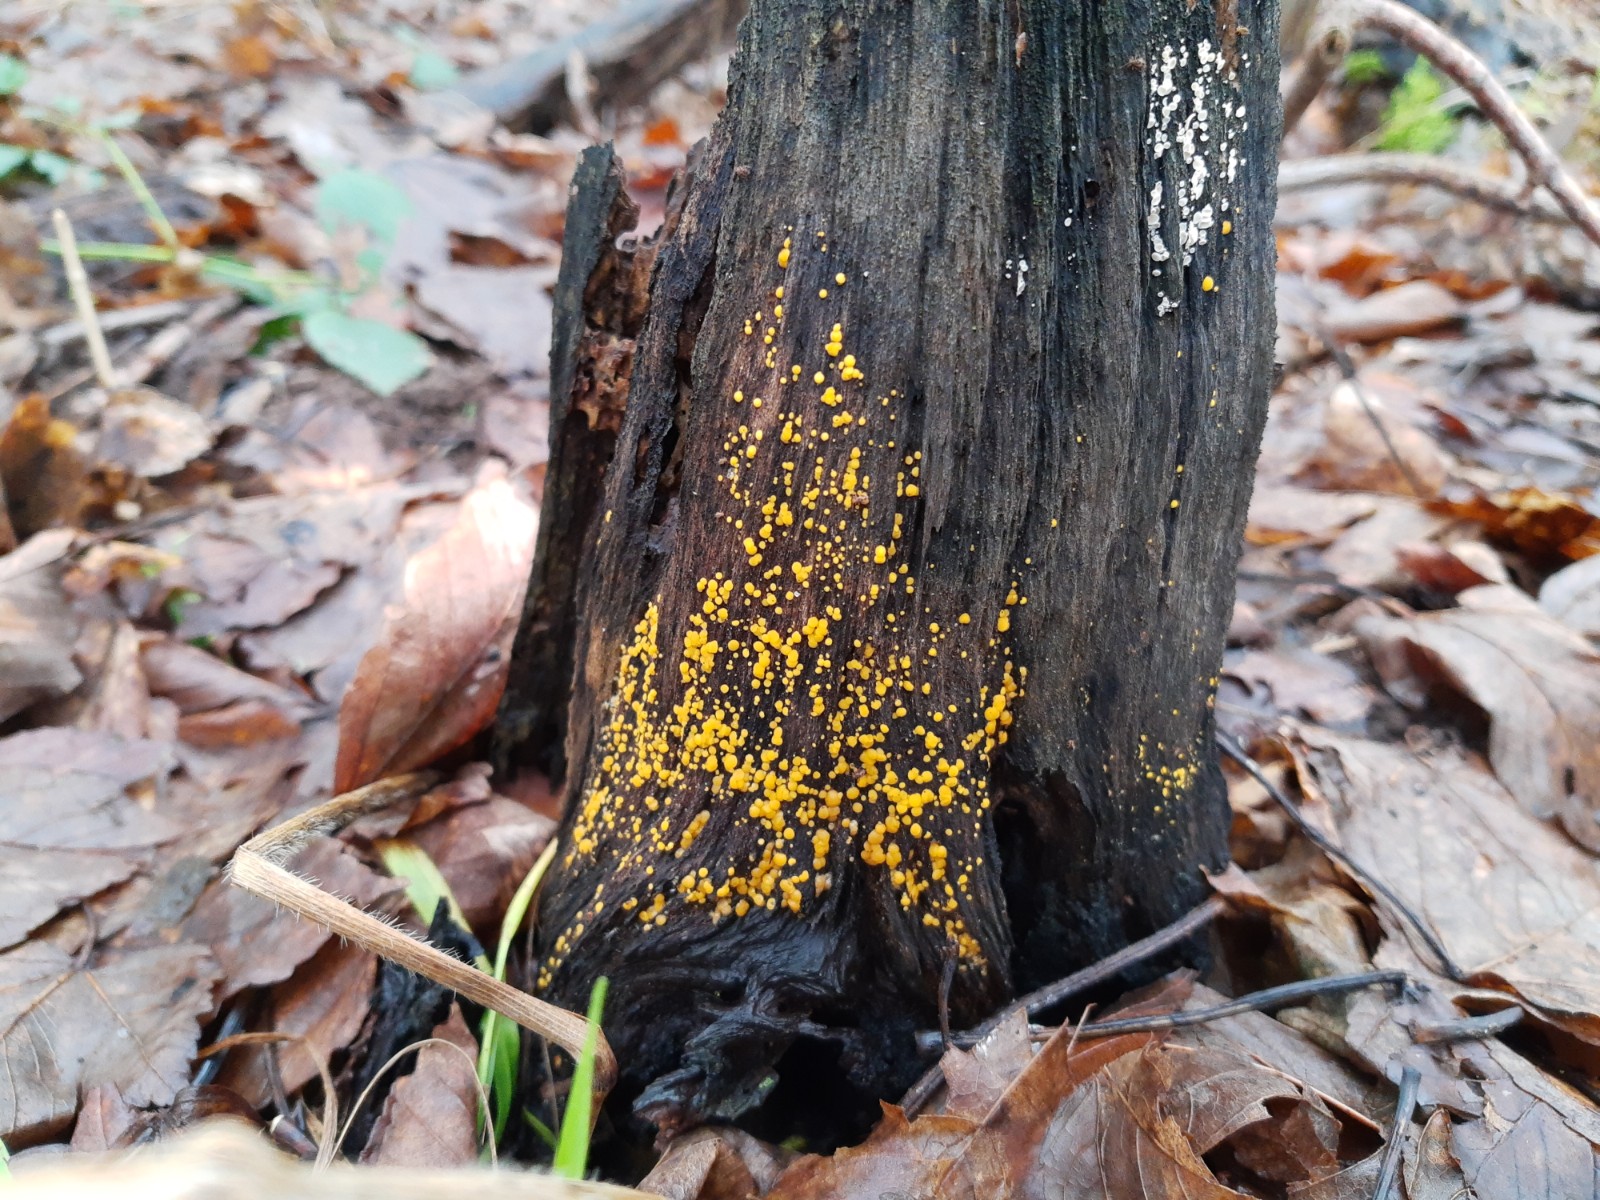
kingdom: Fungi
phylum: Ascomycota
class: Leotiomycetes
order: Helotiales
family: Pezizellaceae
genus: Calycina
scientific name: Calycina citrina
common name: almindelig gulskive
